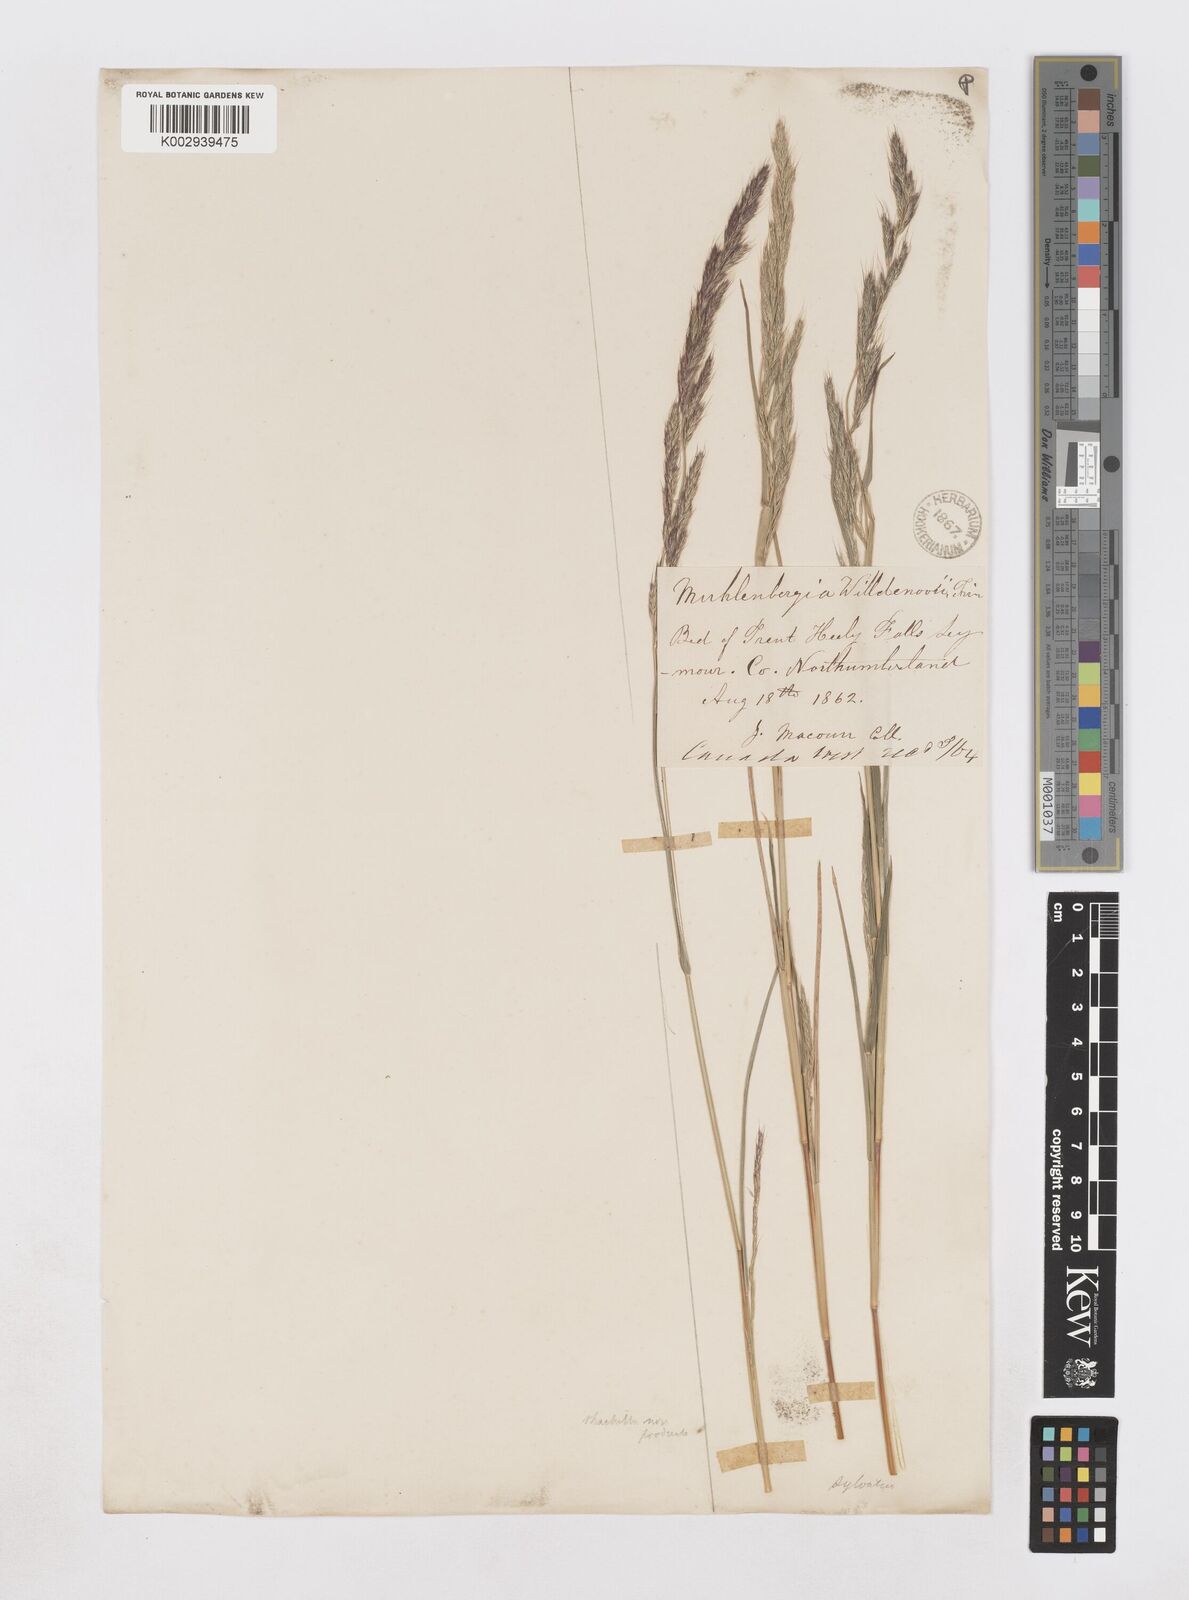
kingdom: Plantae
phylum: Tracheophyta
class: Liliopsida
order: Poales
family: Poaceae
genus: Muhlenbergia
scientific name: Muhlenbergia sylvatica
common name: Woodland muhly
